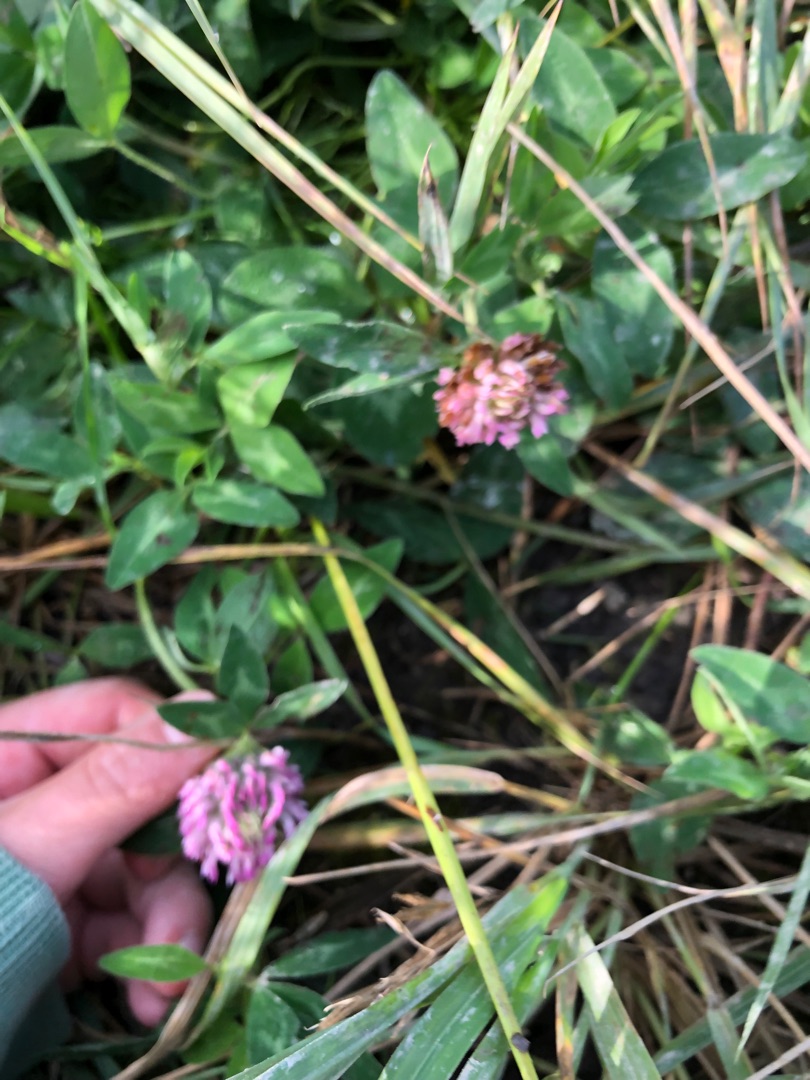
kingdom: Plantae
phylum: Tracheophyta
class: Magnoliopsida
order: Fabales
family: Fabaceae
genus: Trifolium
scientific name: Trifolium pratense
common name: Rød-kløver
